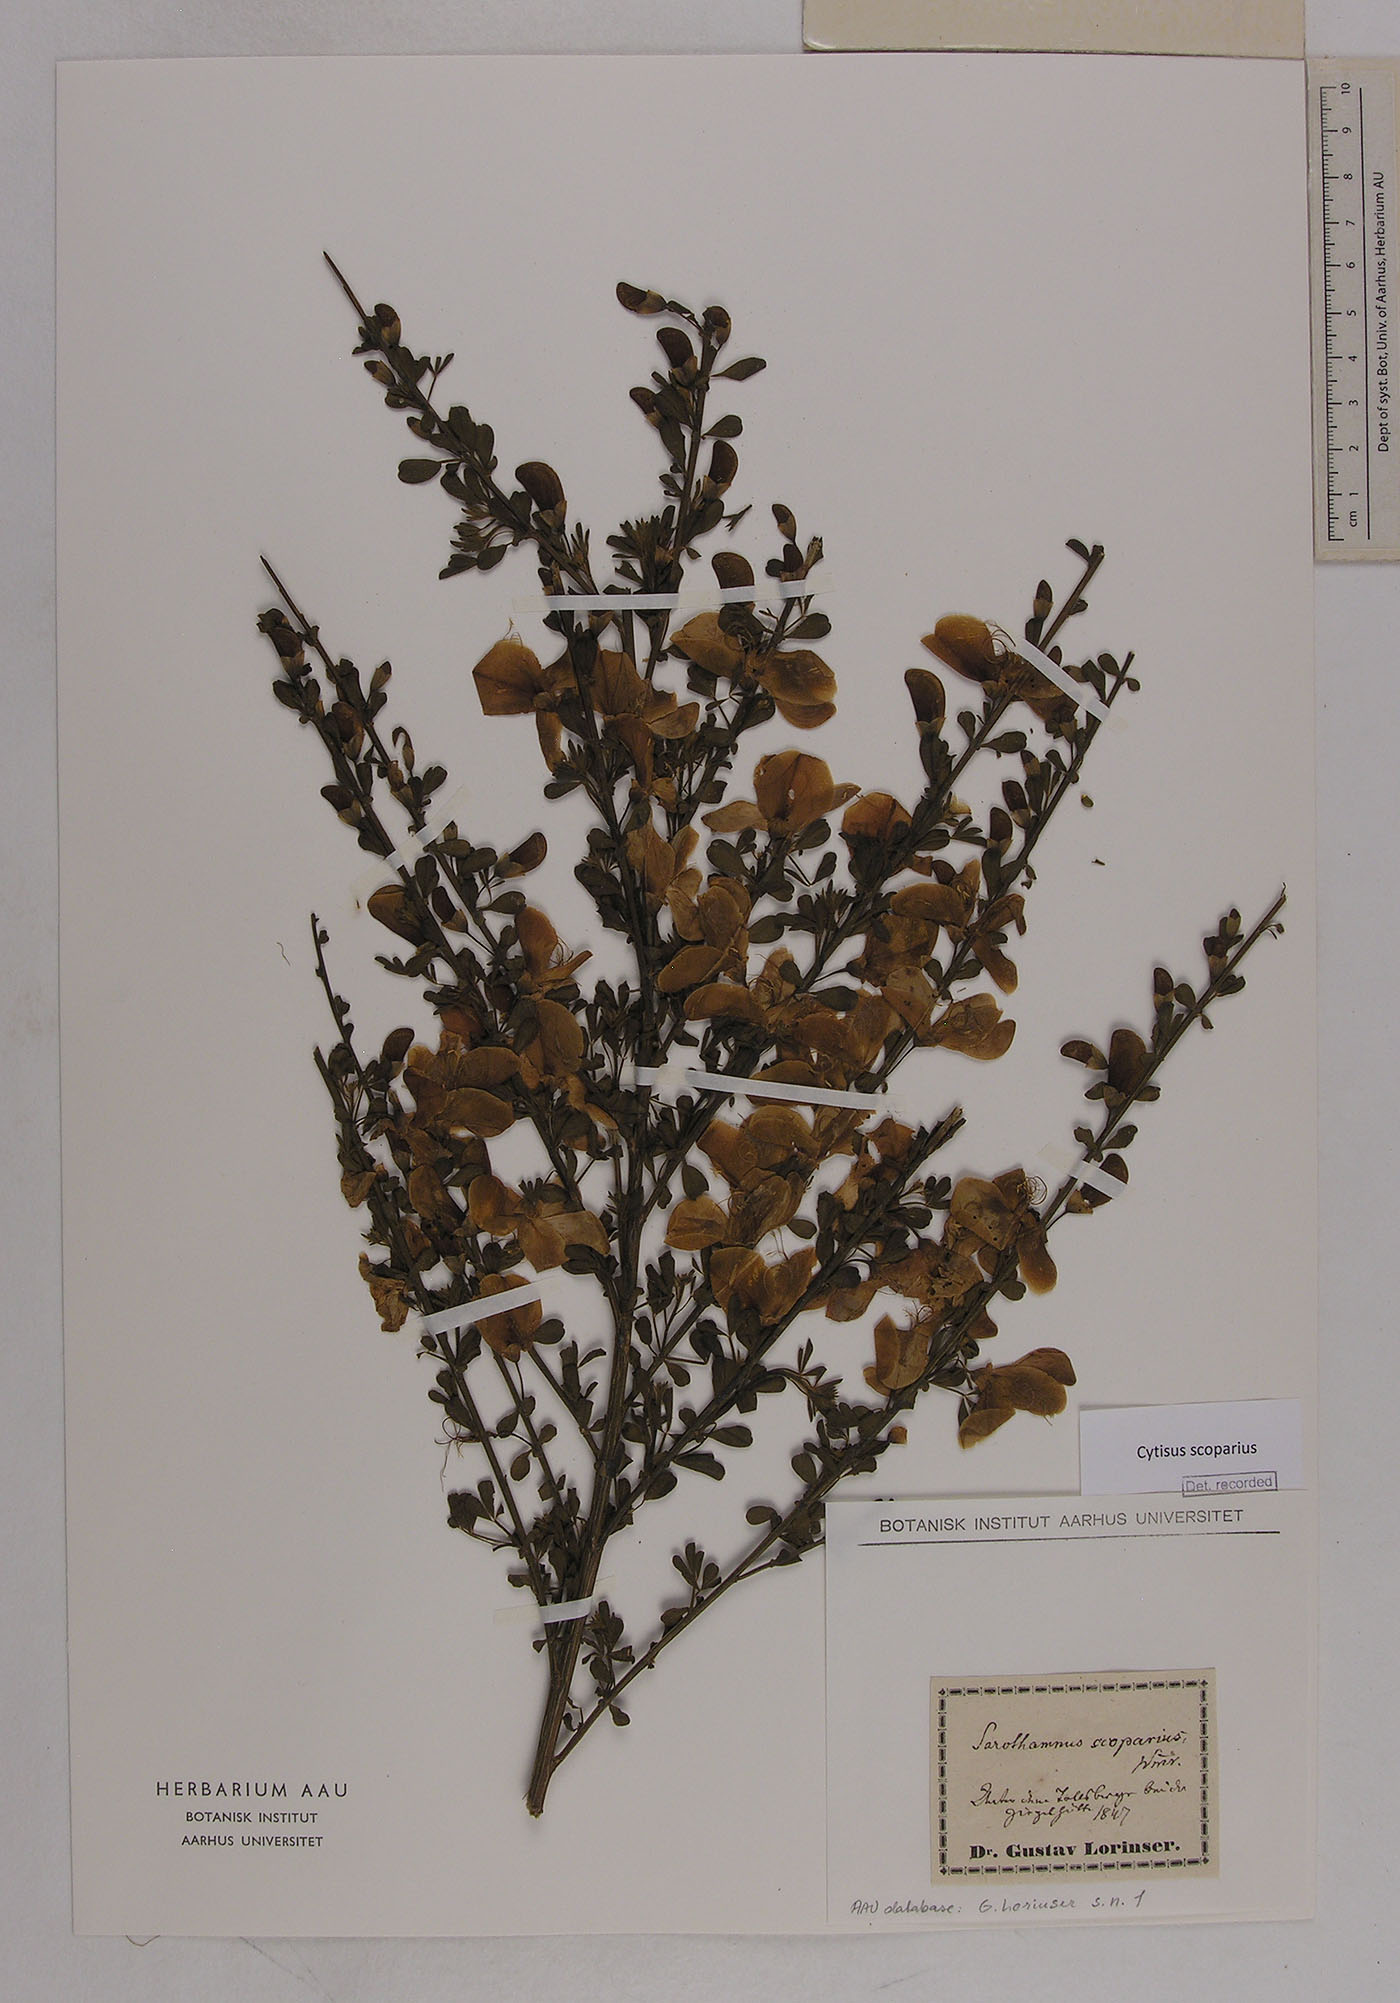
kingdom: Plantae
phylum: Tracheophyta
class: Magnoliopsida
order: Fabales
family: Fabaceae
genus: Cytisus
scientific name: Cytisus scoparius
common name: Scotch broom
